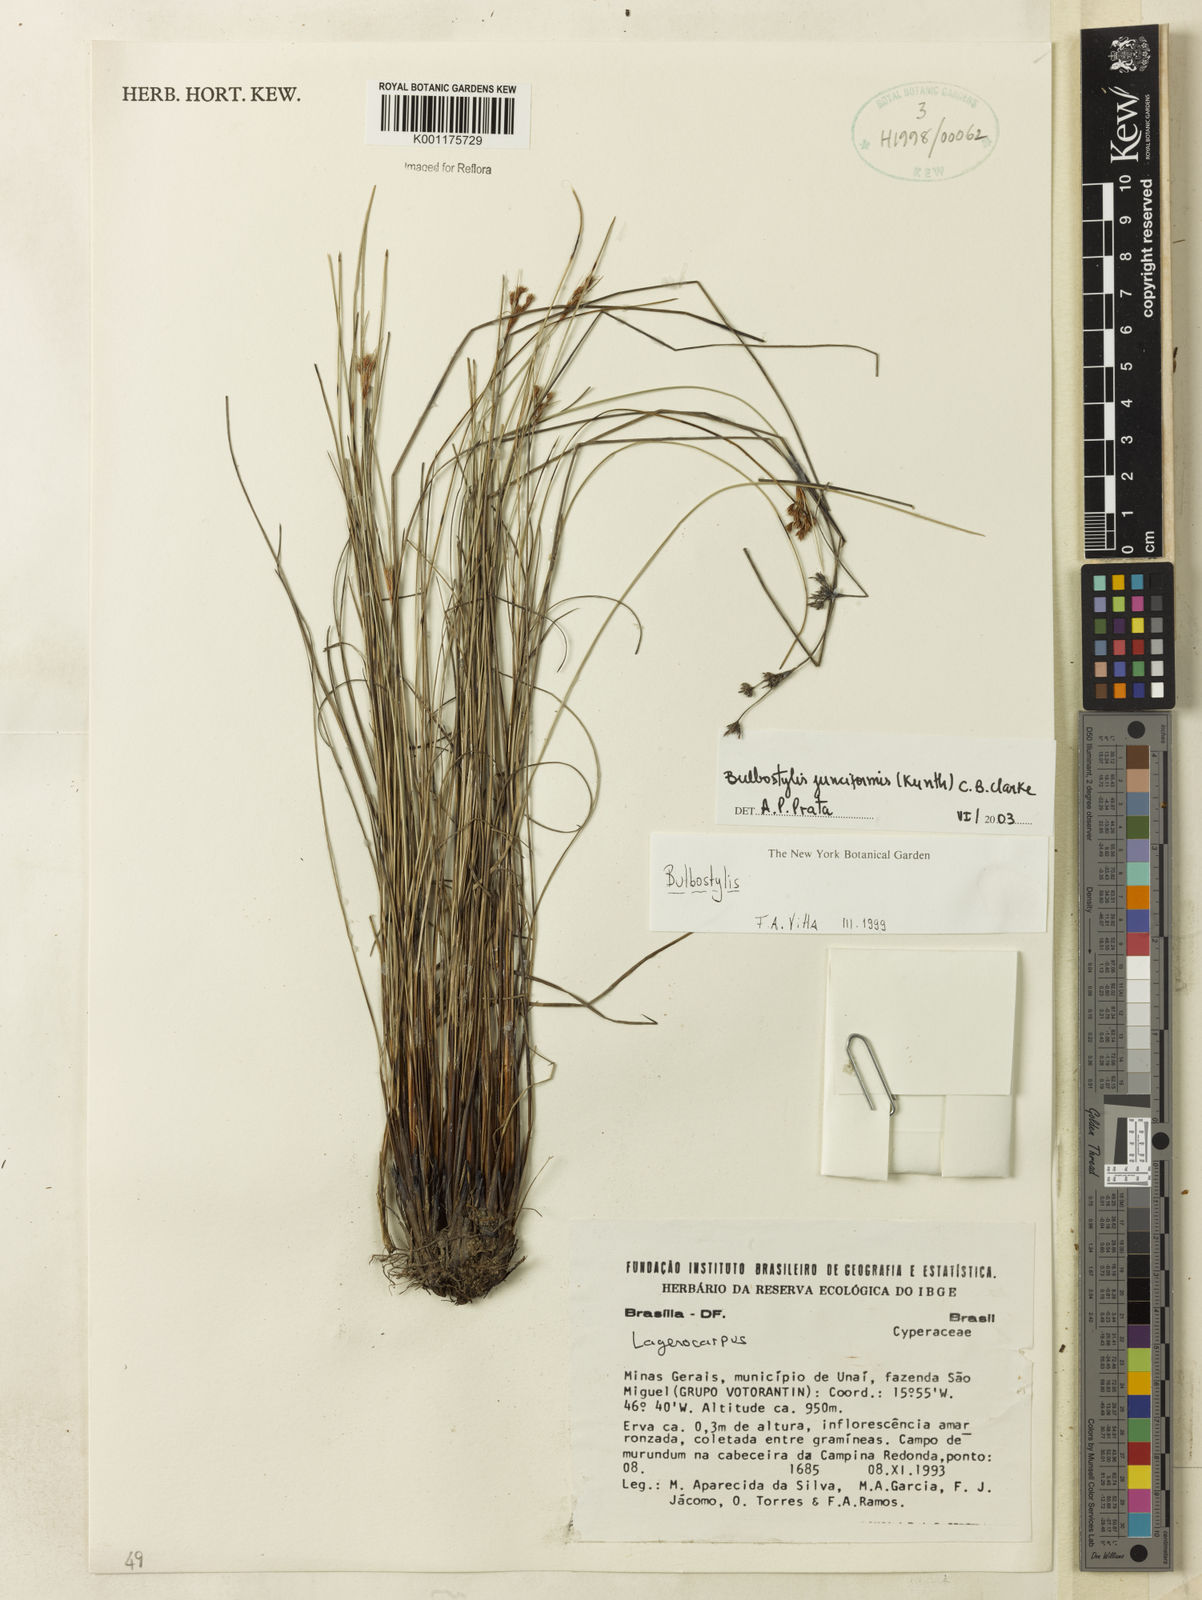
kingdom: Plantae
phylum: Tracheophyta
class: Liliopsida
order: Poales
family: Cyperaceae
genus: Bulbostylis
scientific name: Bulbostylis junciformis
